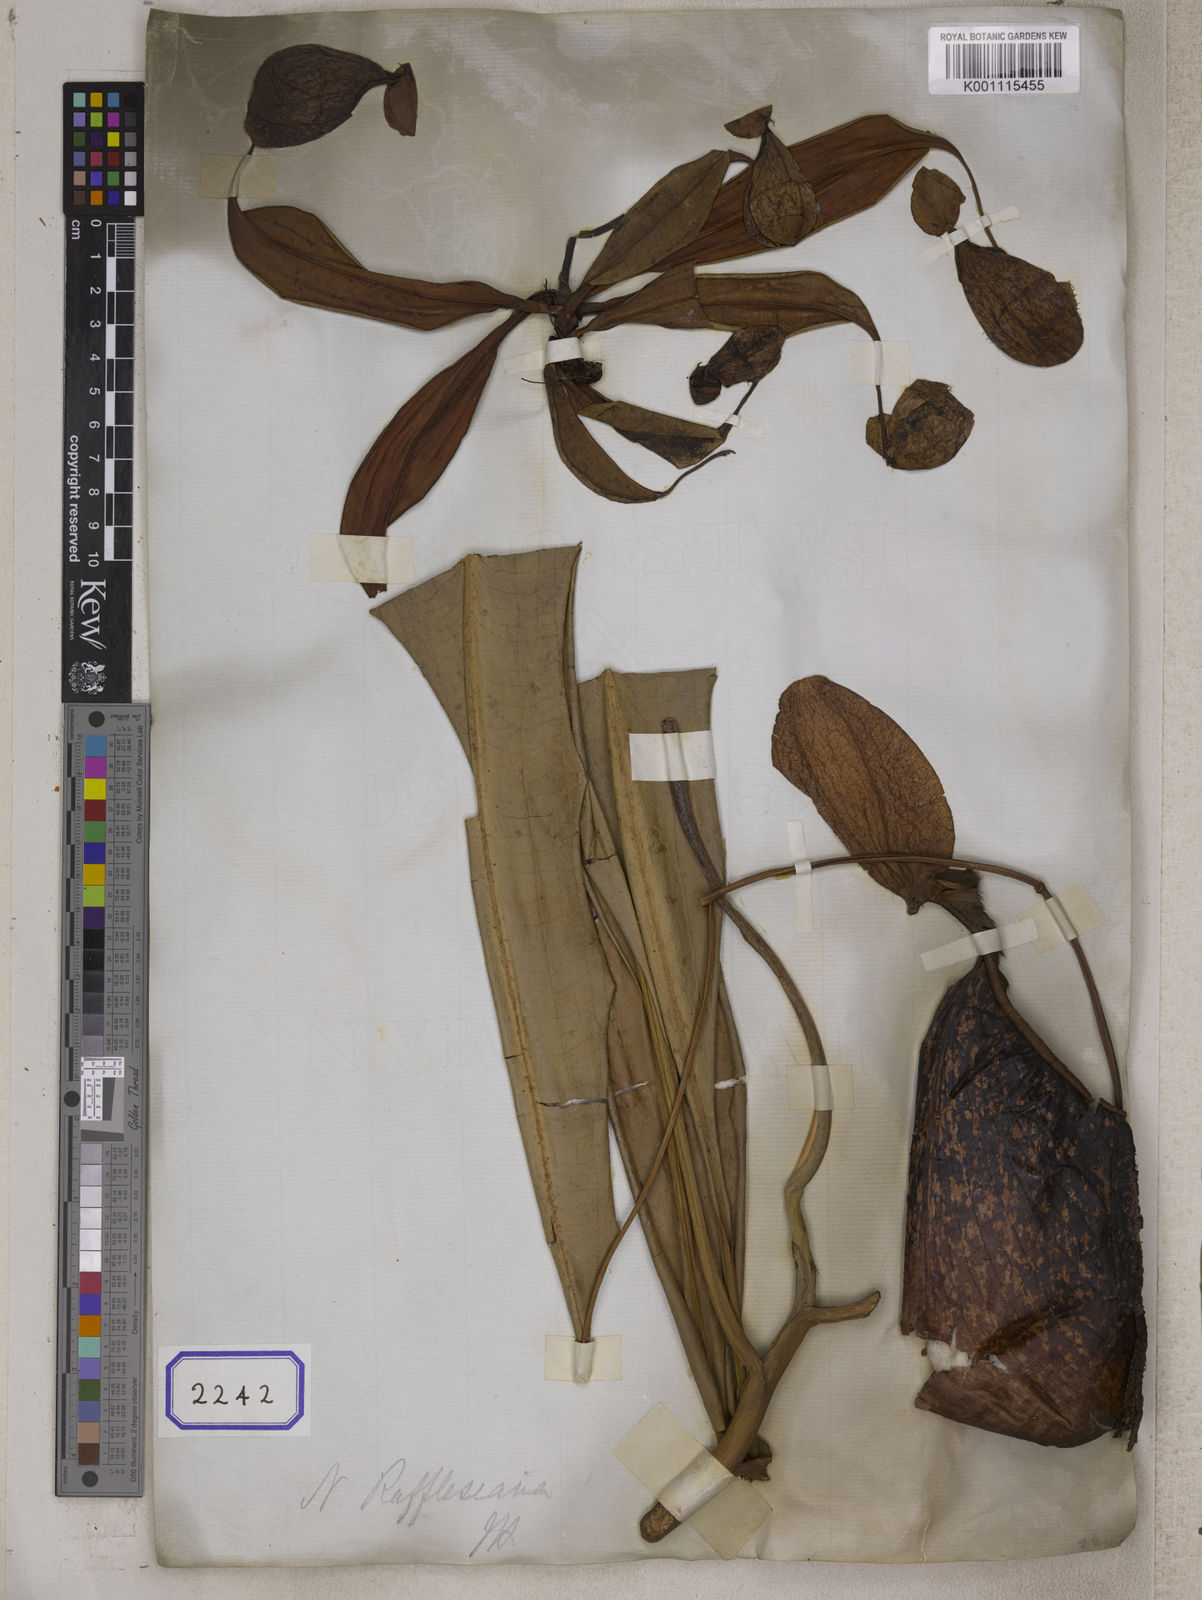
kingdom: Plantae
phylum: Tracheophyta
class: Magnoliopsida
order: Caryophyllales
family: Nepenthaceae
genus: Nepenthes
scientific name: Nepenthes rafflesiana
